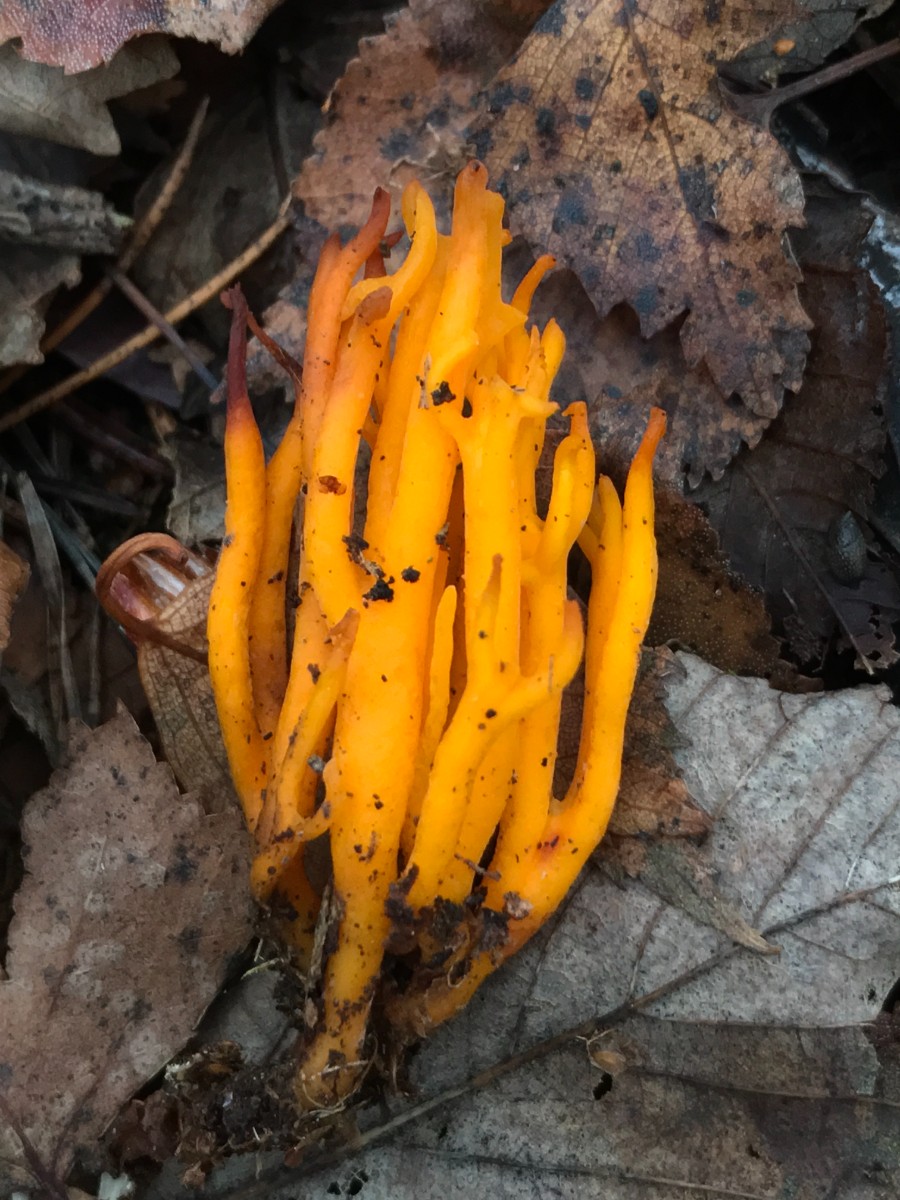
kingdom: Fungi
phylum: Basidiomycota
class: Dacrymycetes
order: Dacrymycetales
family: Dacrymycetaceae
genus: Calocera
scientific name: Calocera viscosa
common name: almindelig guldgaffel
